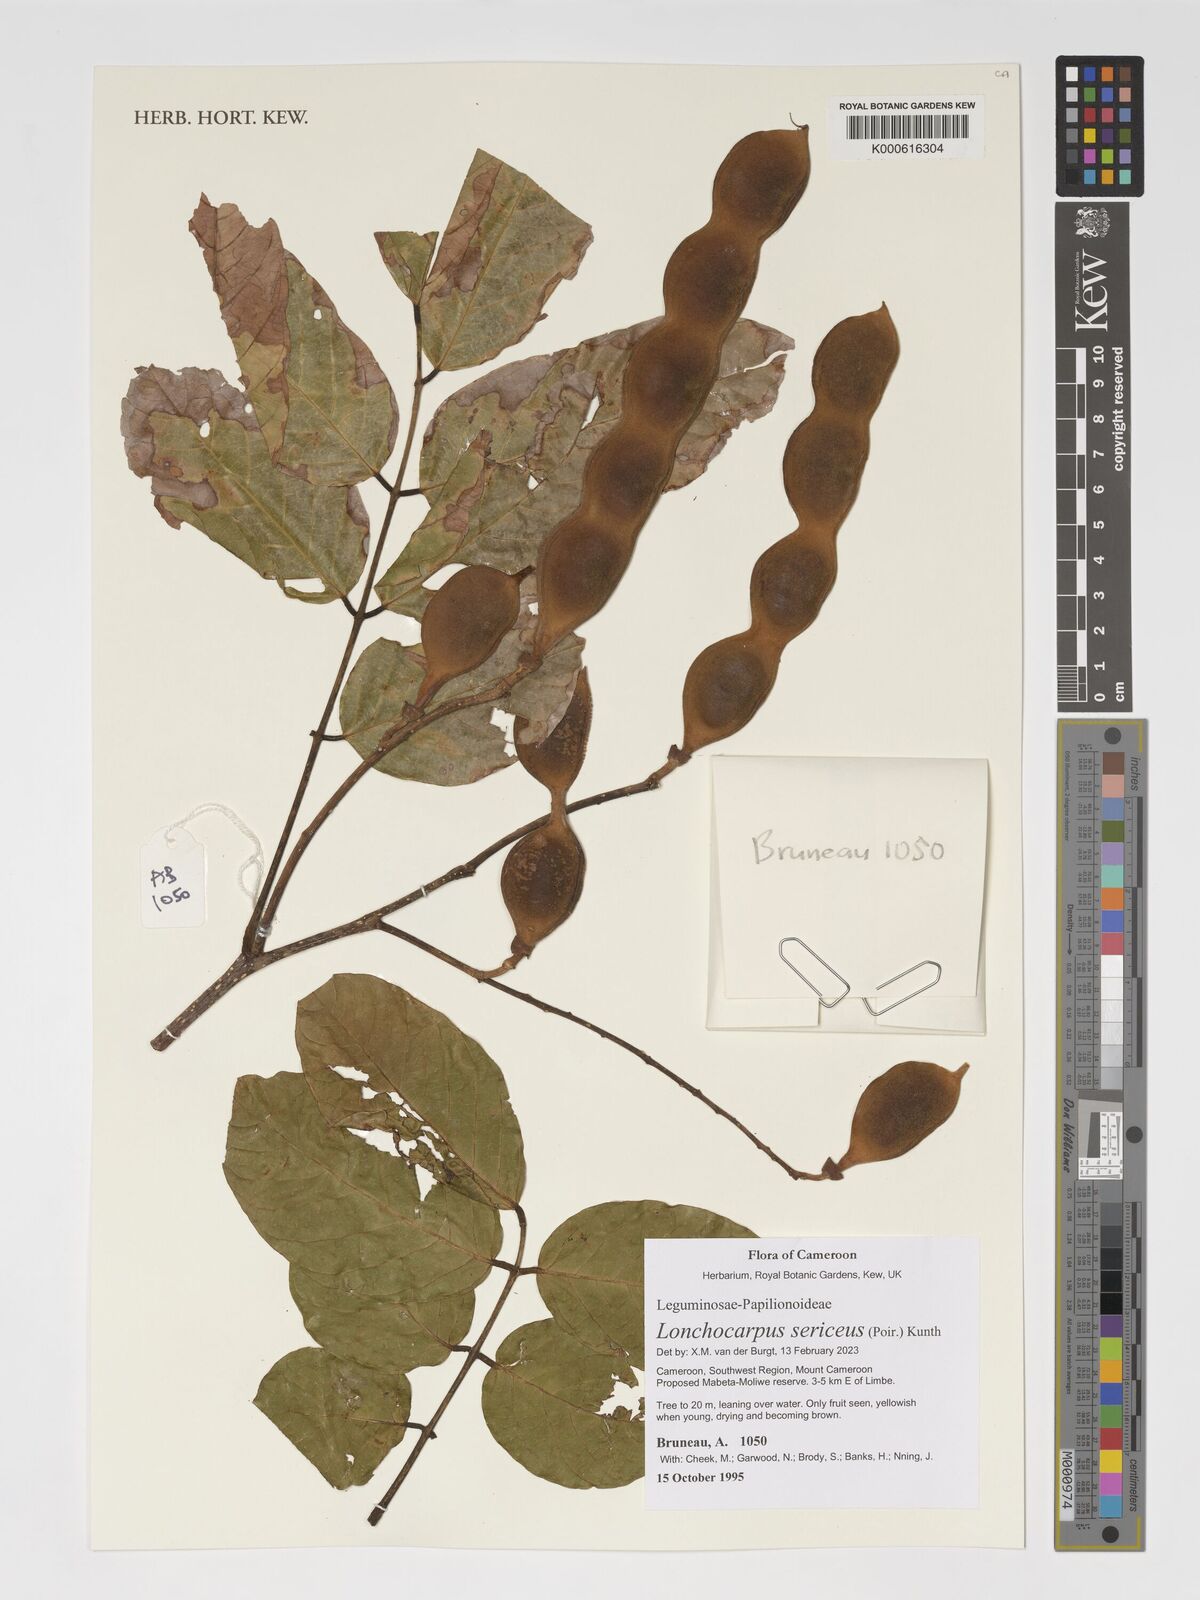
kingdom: Plantae
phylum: Tracheophyta
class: Magnoliopsida
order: Fabales
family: Fabaceae
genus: Lonchocarpus
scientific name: Lonchocarpus sericeus
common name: Savonette
